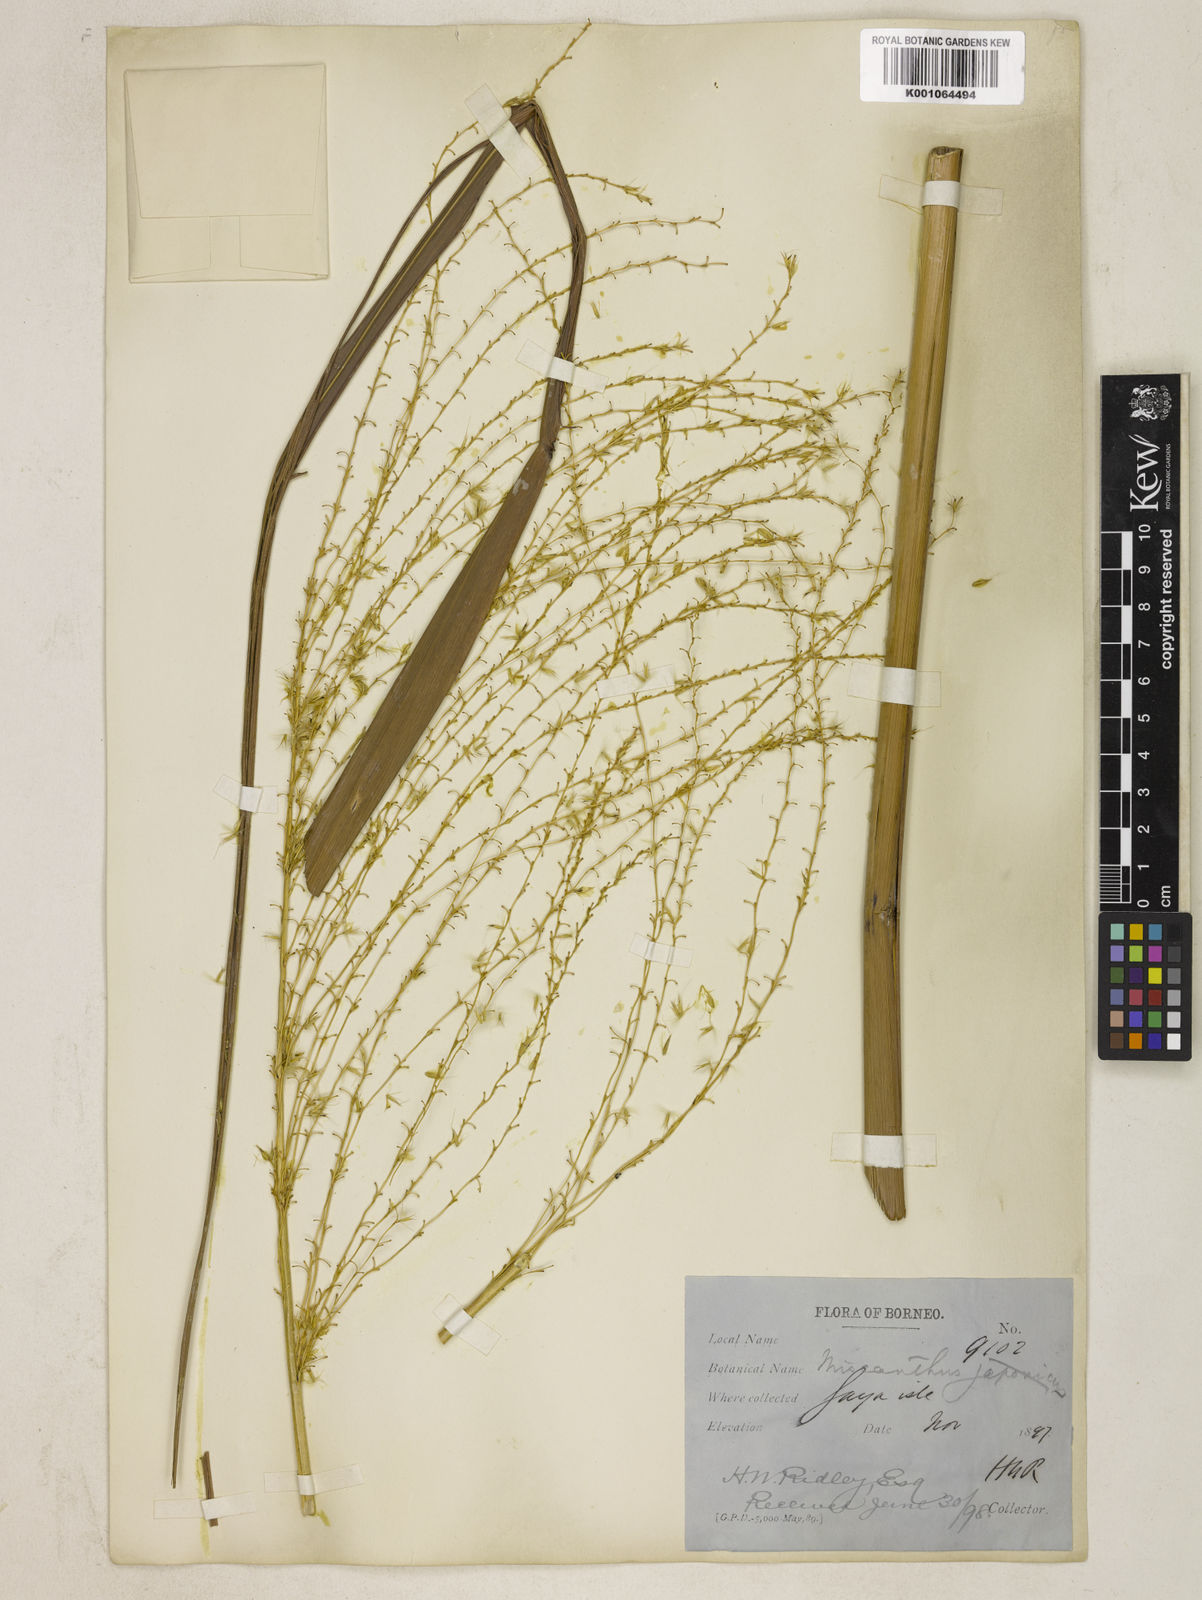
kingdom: Plantae
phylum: Tracheophyta
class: Liliopsida
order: Poales
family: Poaceae
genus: Miscanthus
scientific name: Miscanthus sinensis
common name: Chinese silvergrass
